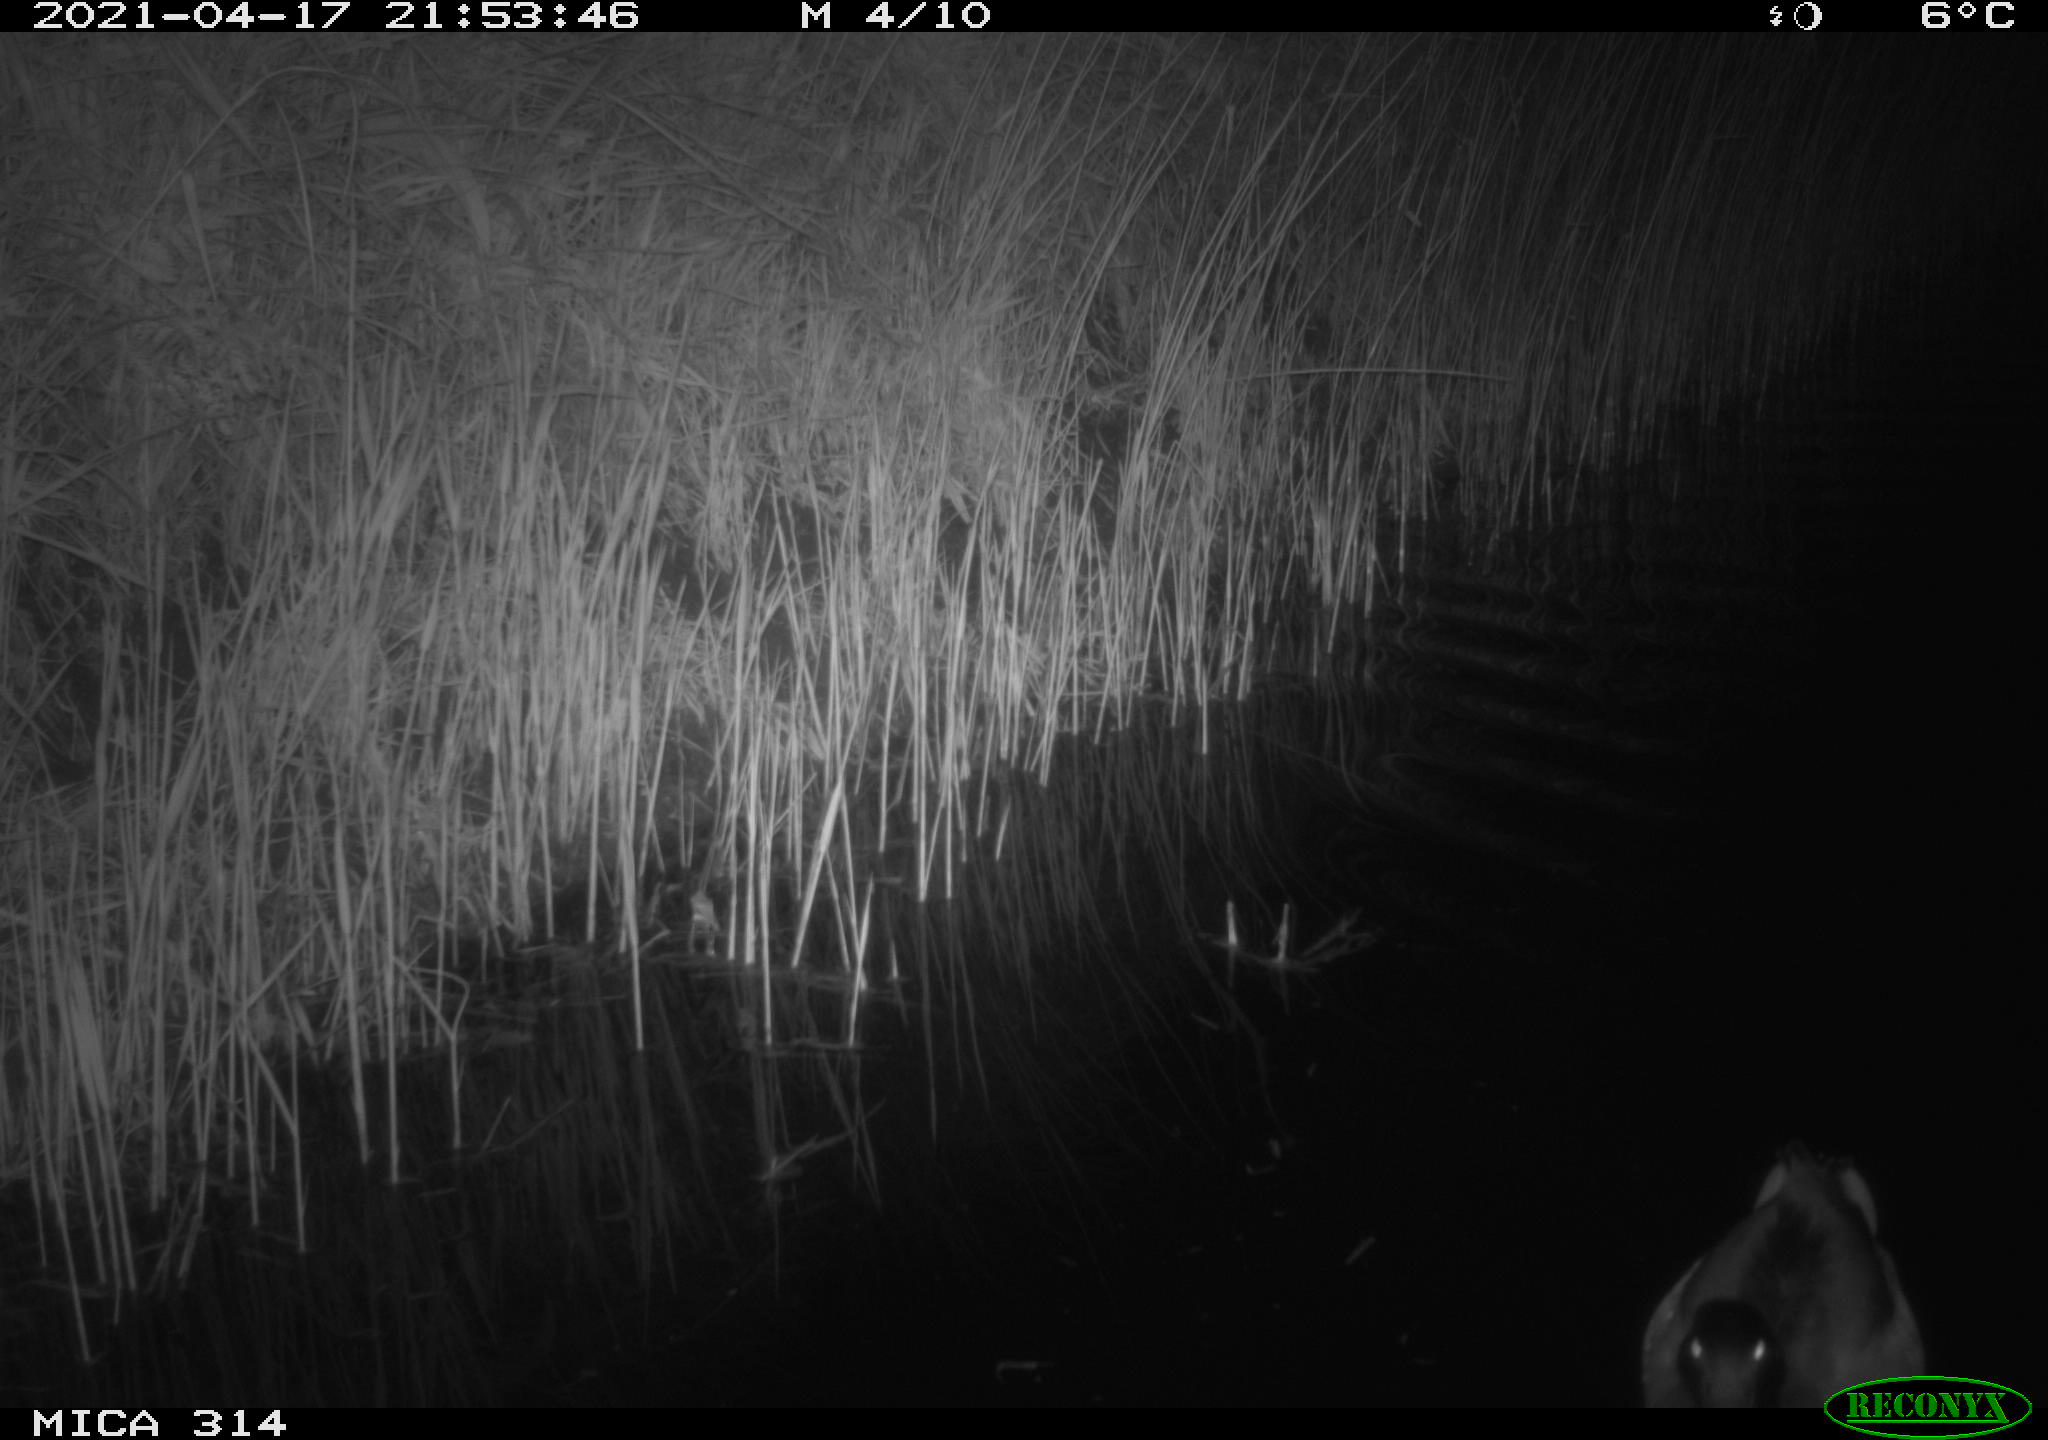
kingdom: Animalia
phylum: Chordata
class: Aves
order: Anseriformes
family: Anatidae
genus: Anas
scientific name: Anas platyrhynchos
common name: Mallard
